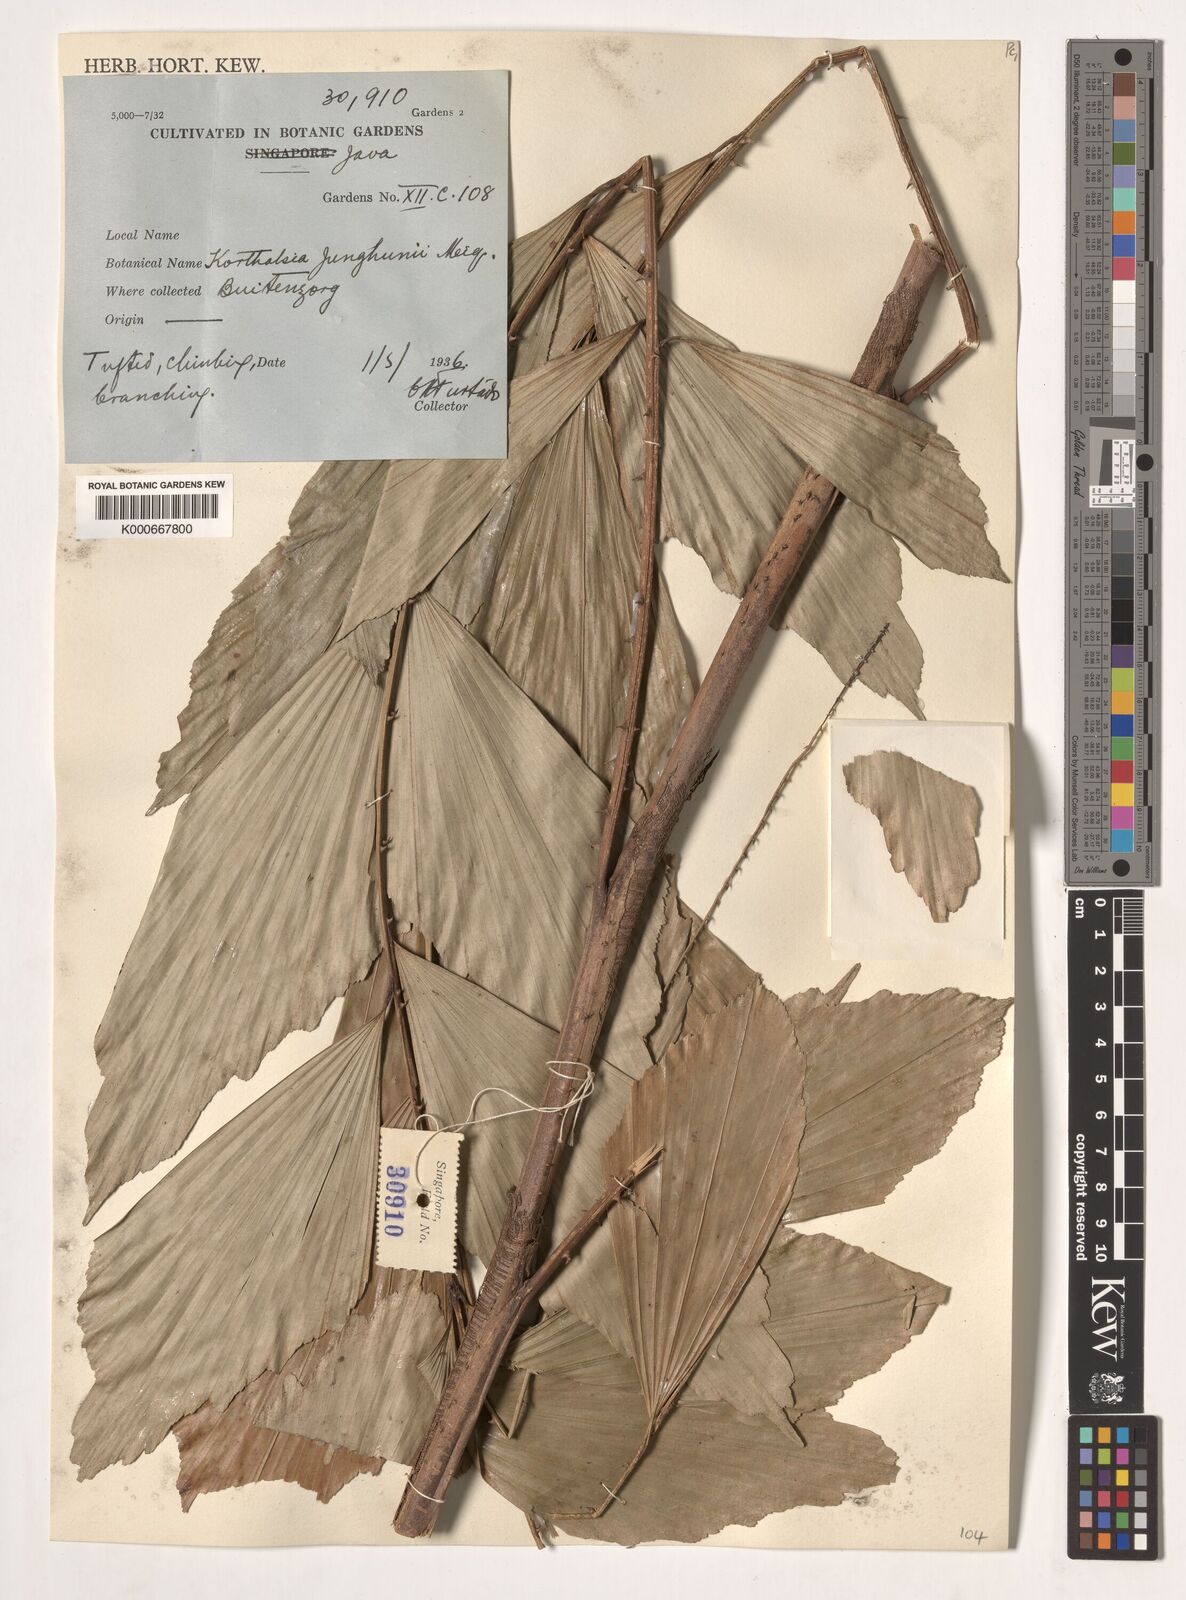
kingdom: Plantae
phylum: Tracheophyta
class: Liliopsida
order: Arecales
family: Arecaceae
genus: Korthalsia
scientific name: Korthalsia junghuhnii
